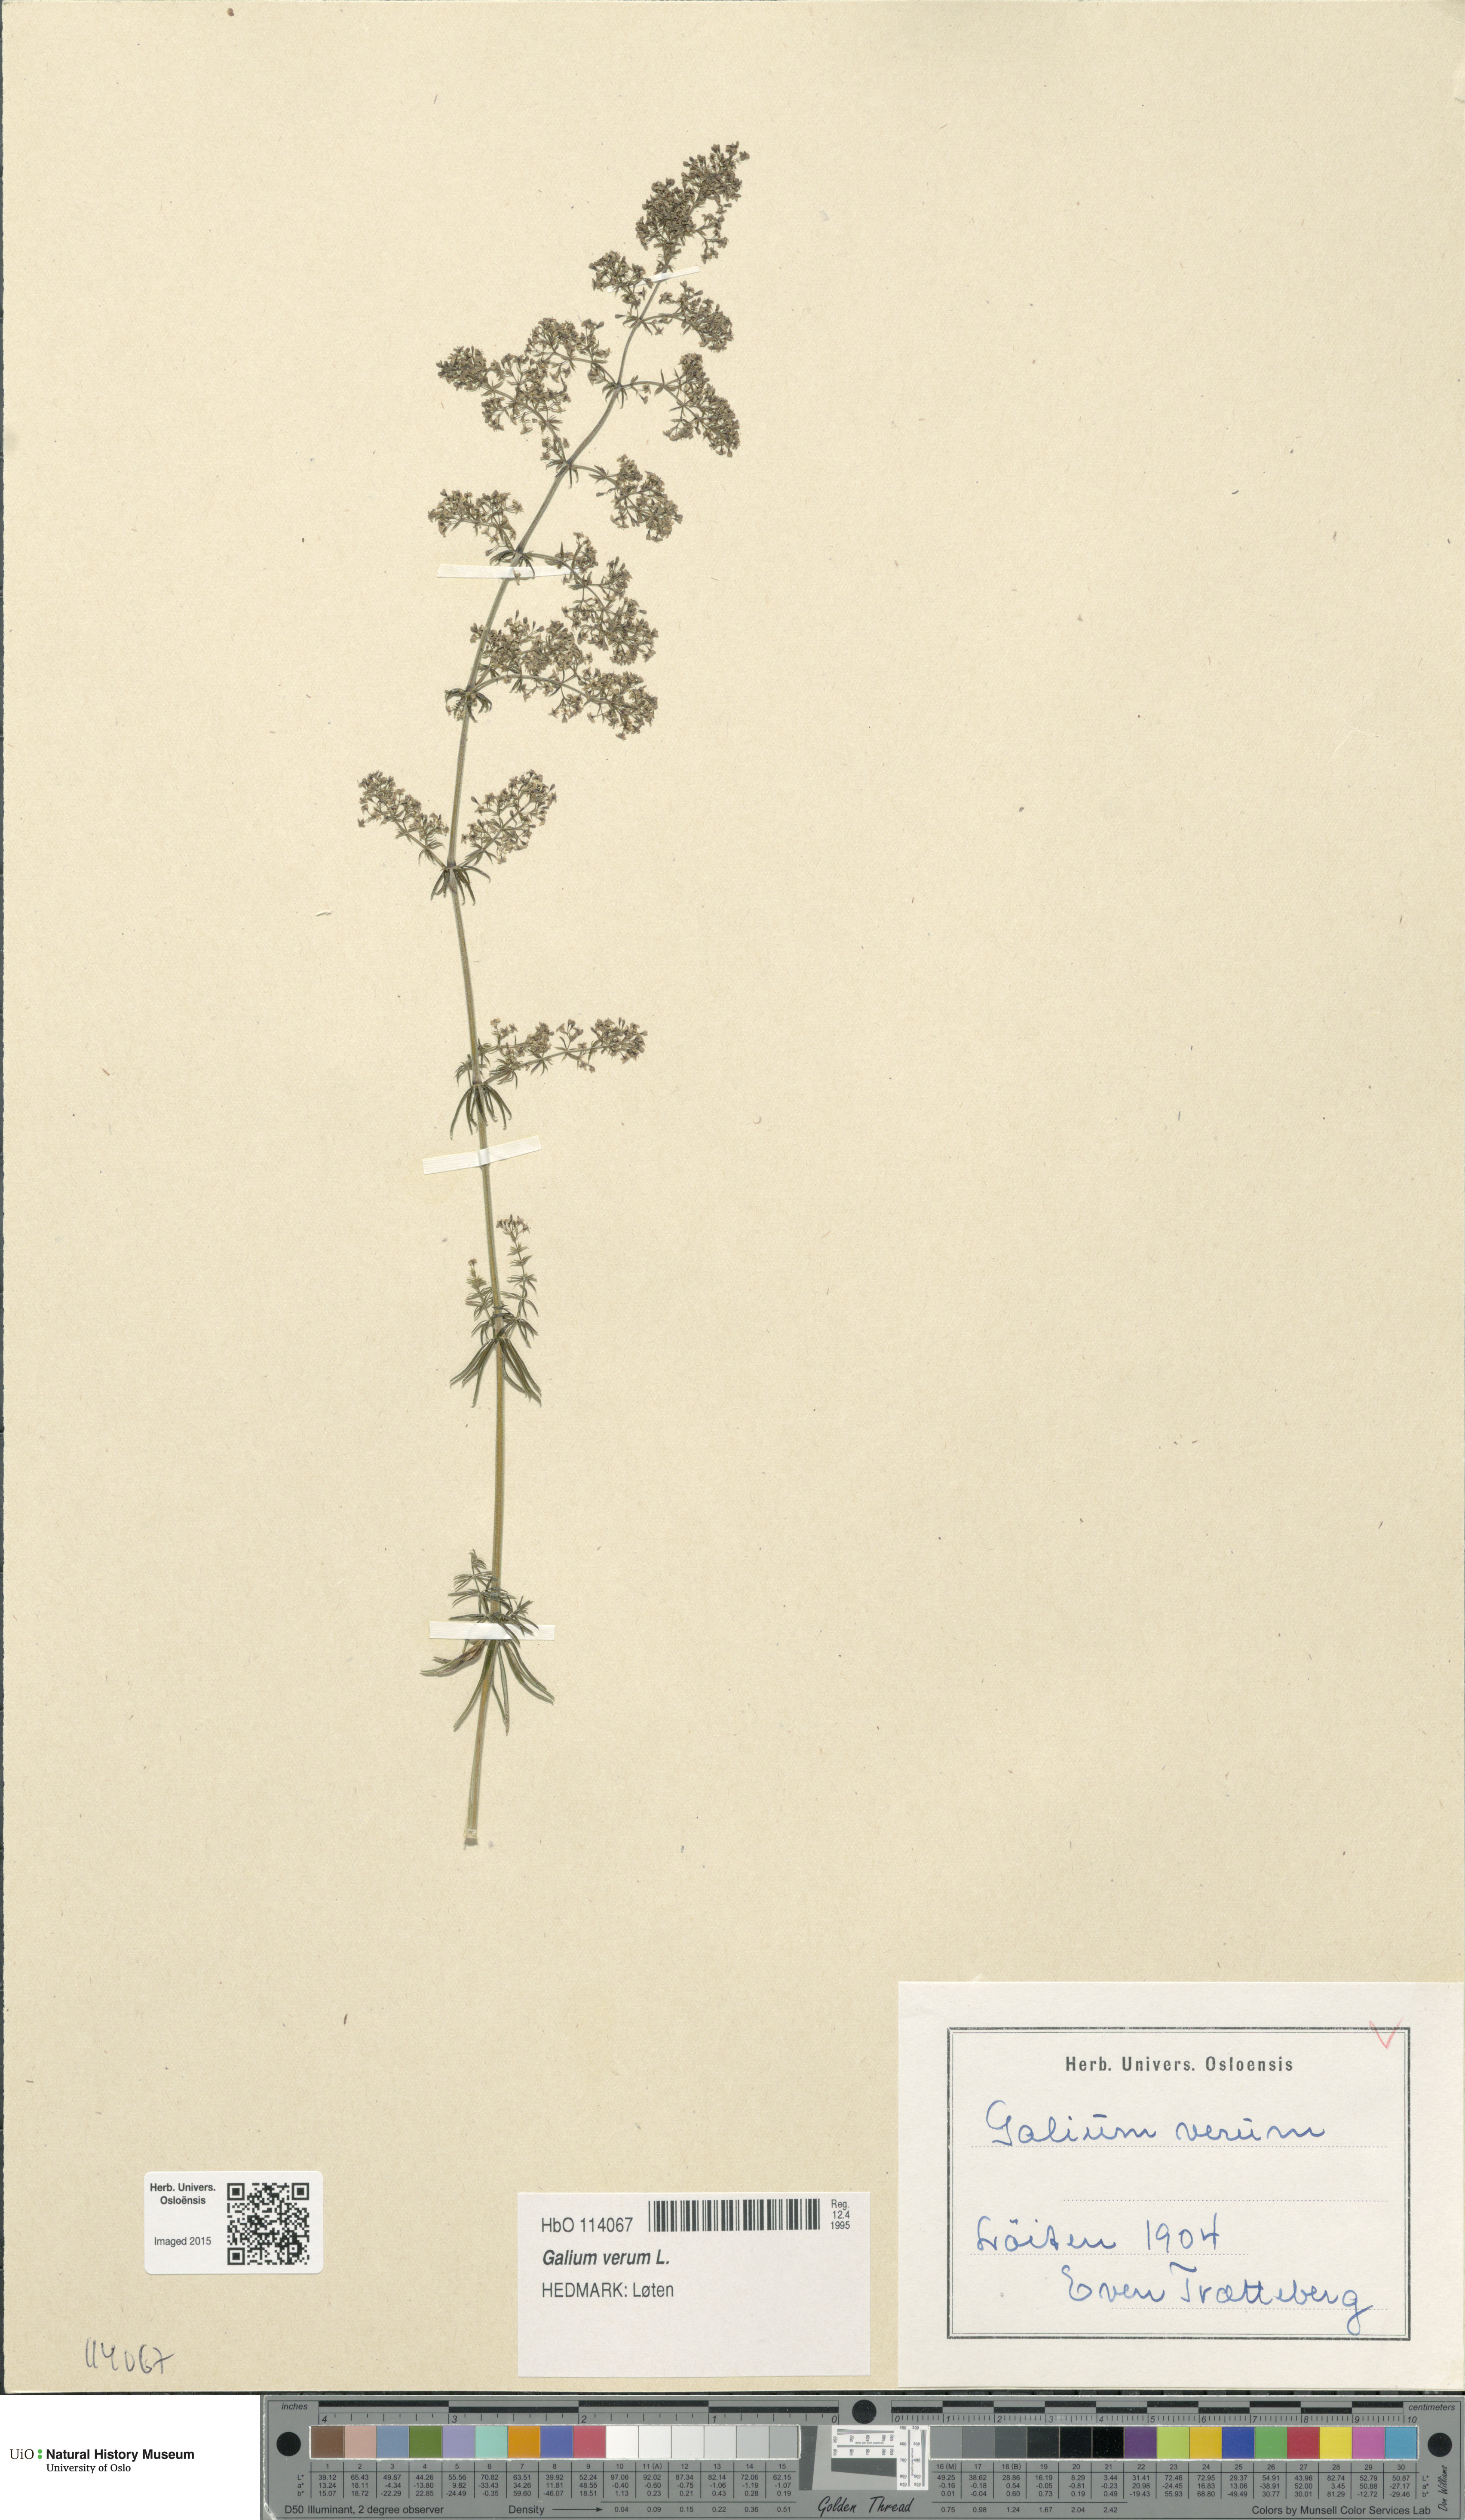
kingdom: Plantae
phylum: Tracheophyta
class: Magnoliopsida
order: Gentianales
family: Rubiaceae
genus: Galium
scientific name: Galium verum
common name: Lady's bedstraw
